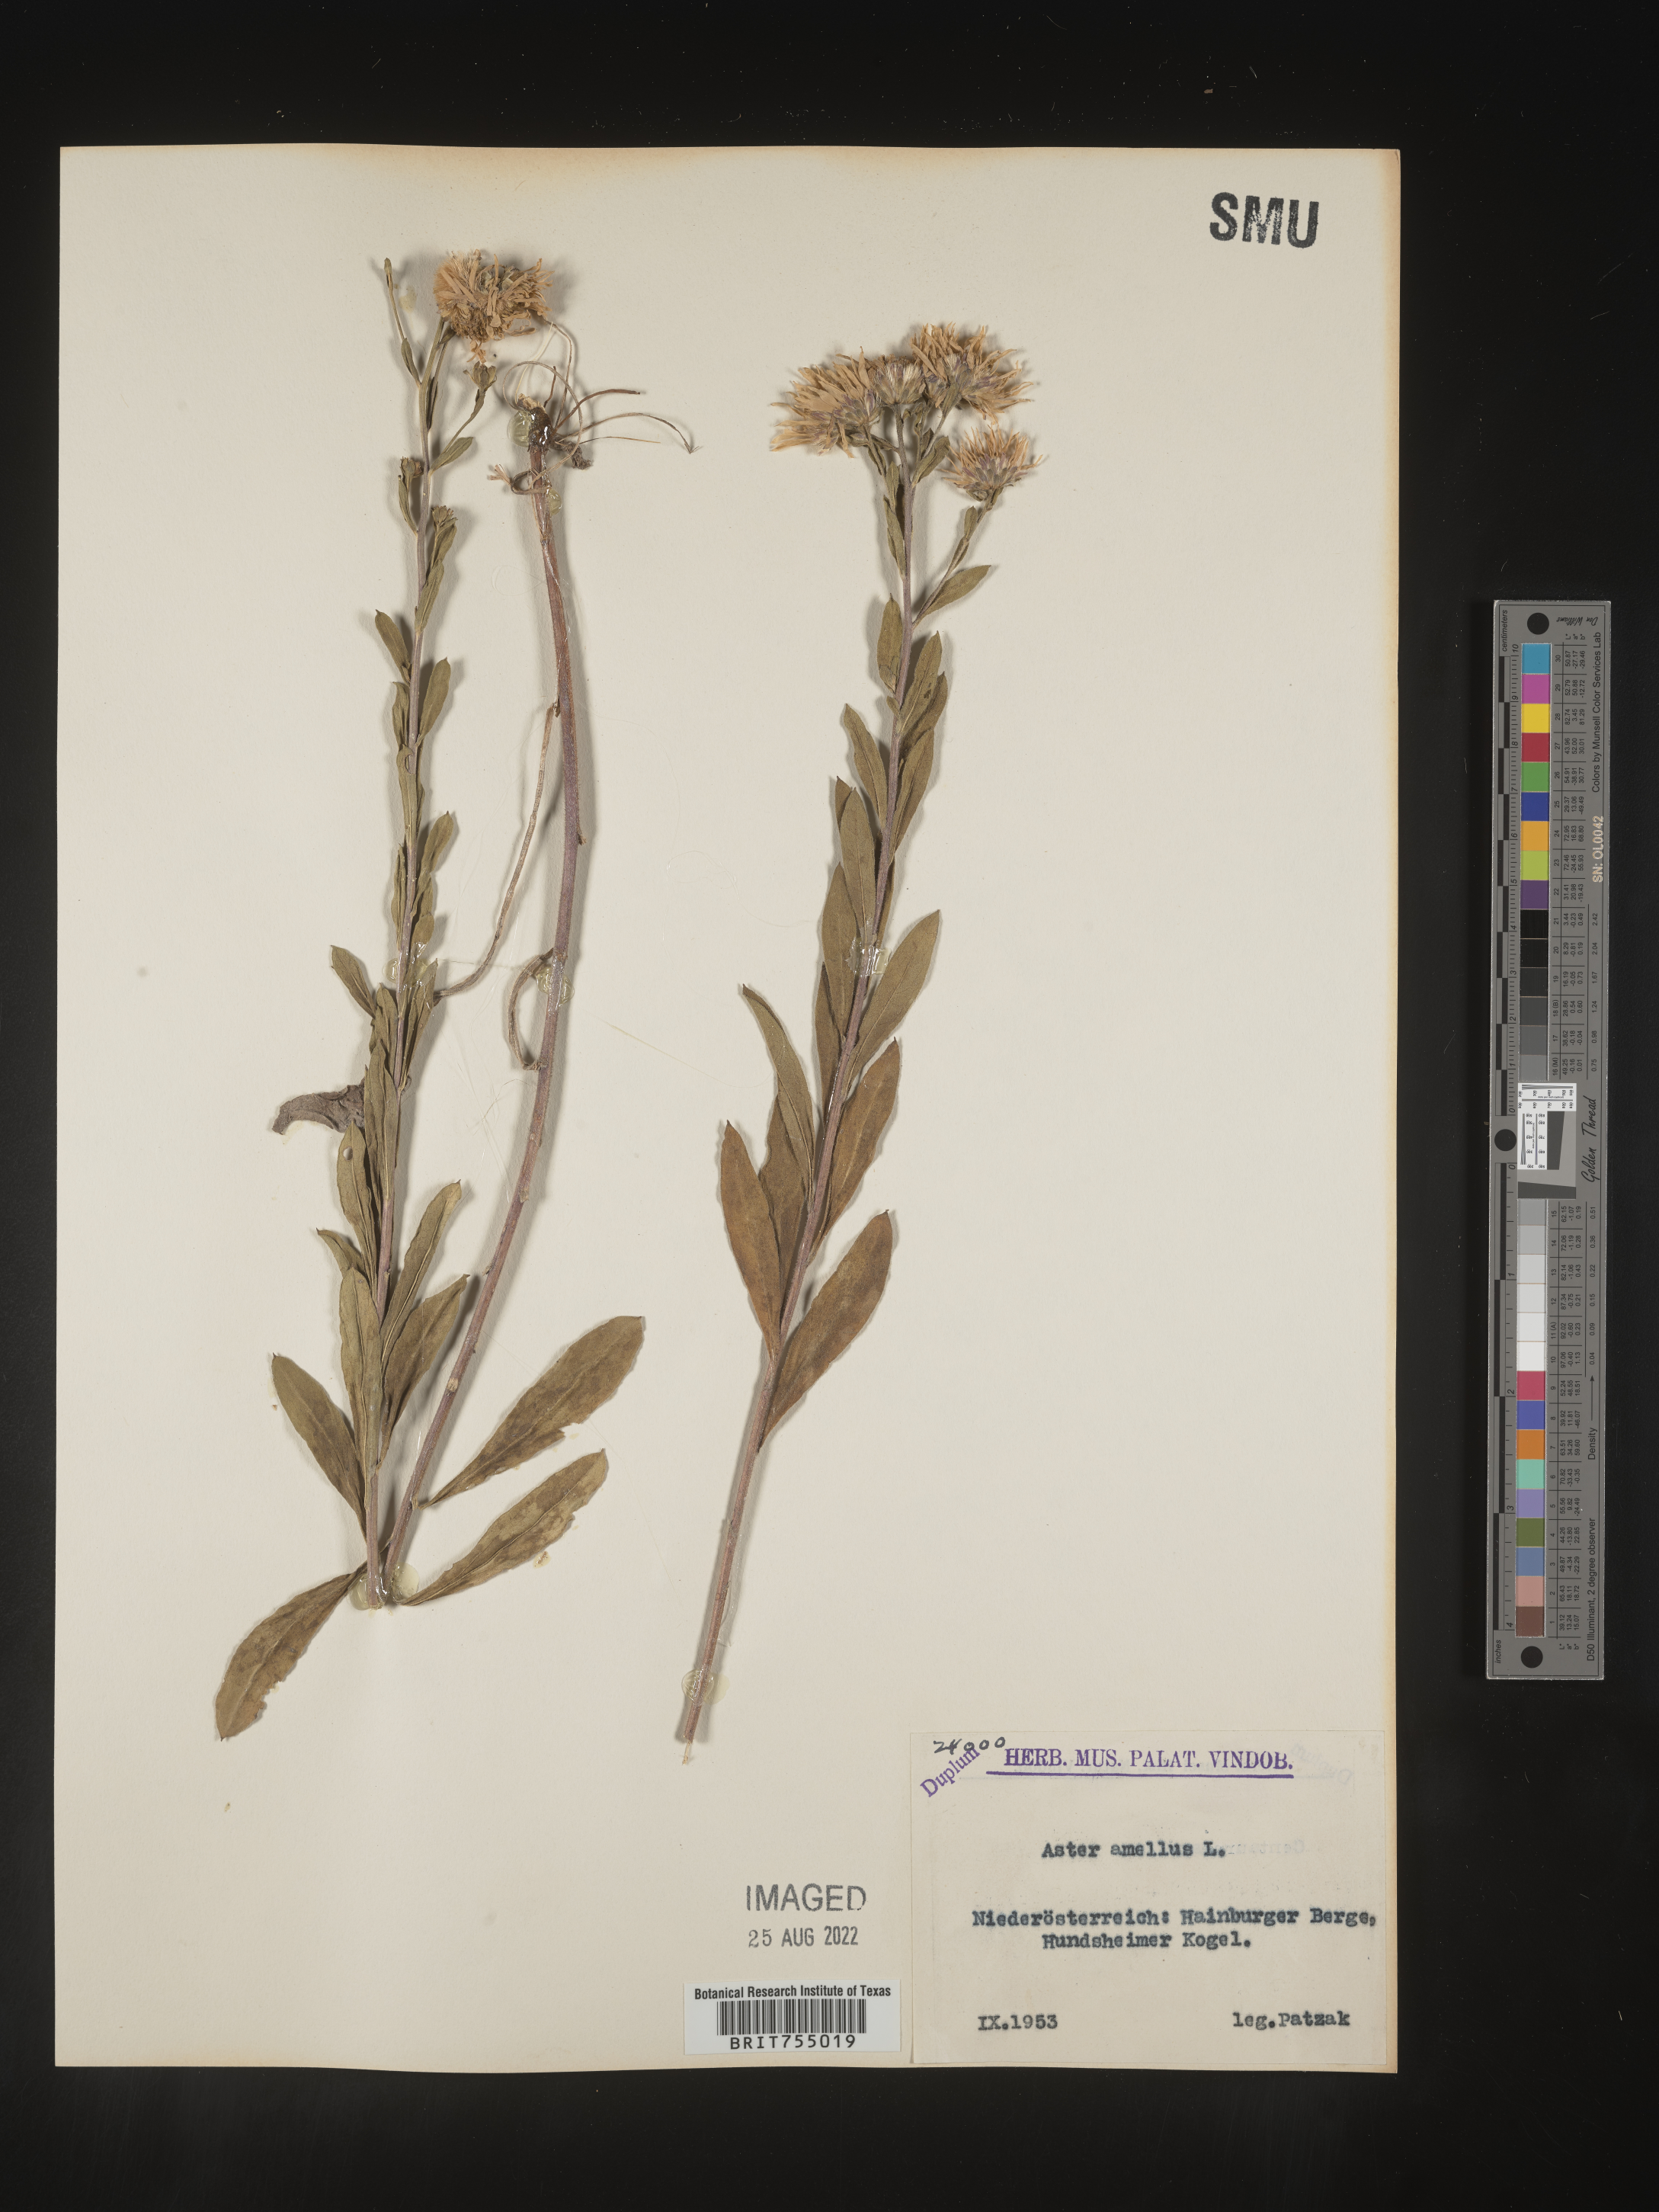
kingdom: Plantae
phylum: Tracheophyta
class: Magnoliopsida
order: Asterales
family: Asteraceae
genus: Symphyotrichum
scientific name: Symphyotrichum
